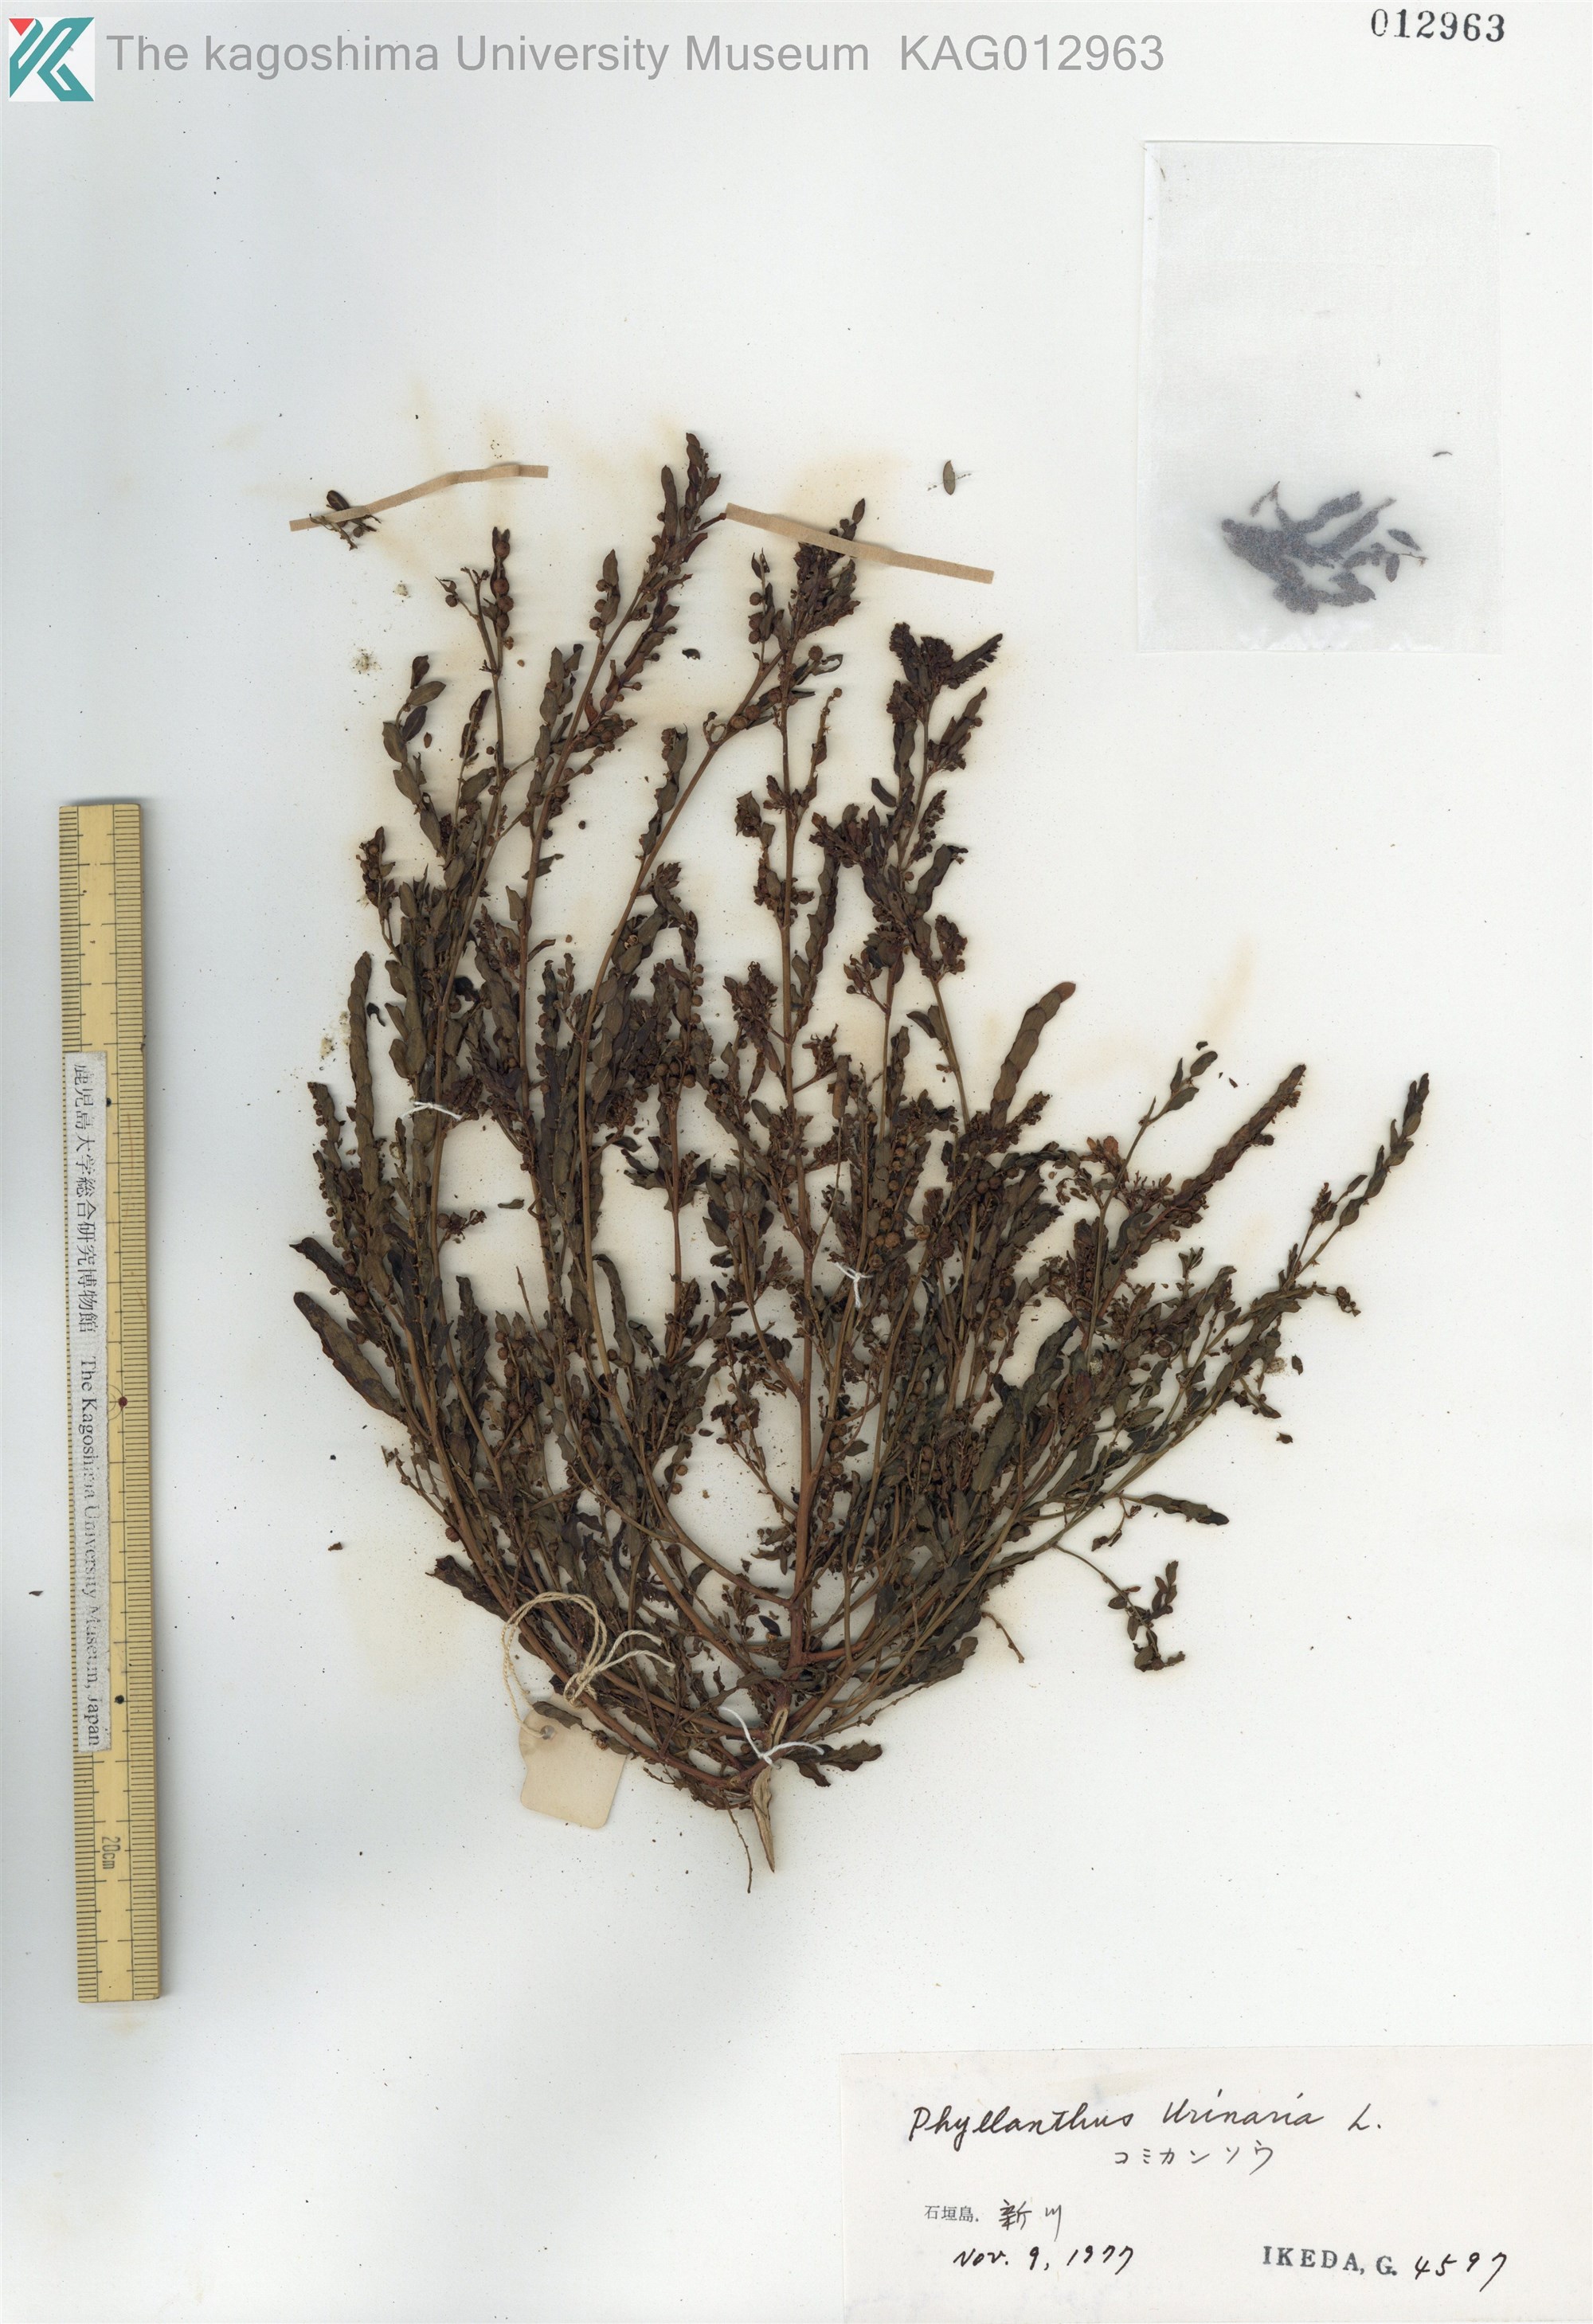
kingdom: Plantae
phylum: Tracheophyta
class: Magnoliopsida
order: Malpighiales
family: Phyllanthaceae
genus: Phyllanthus
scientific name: Phyllanthus urinaria
